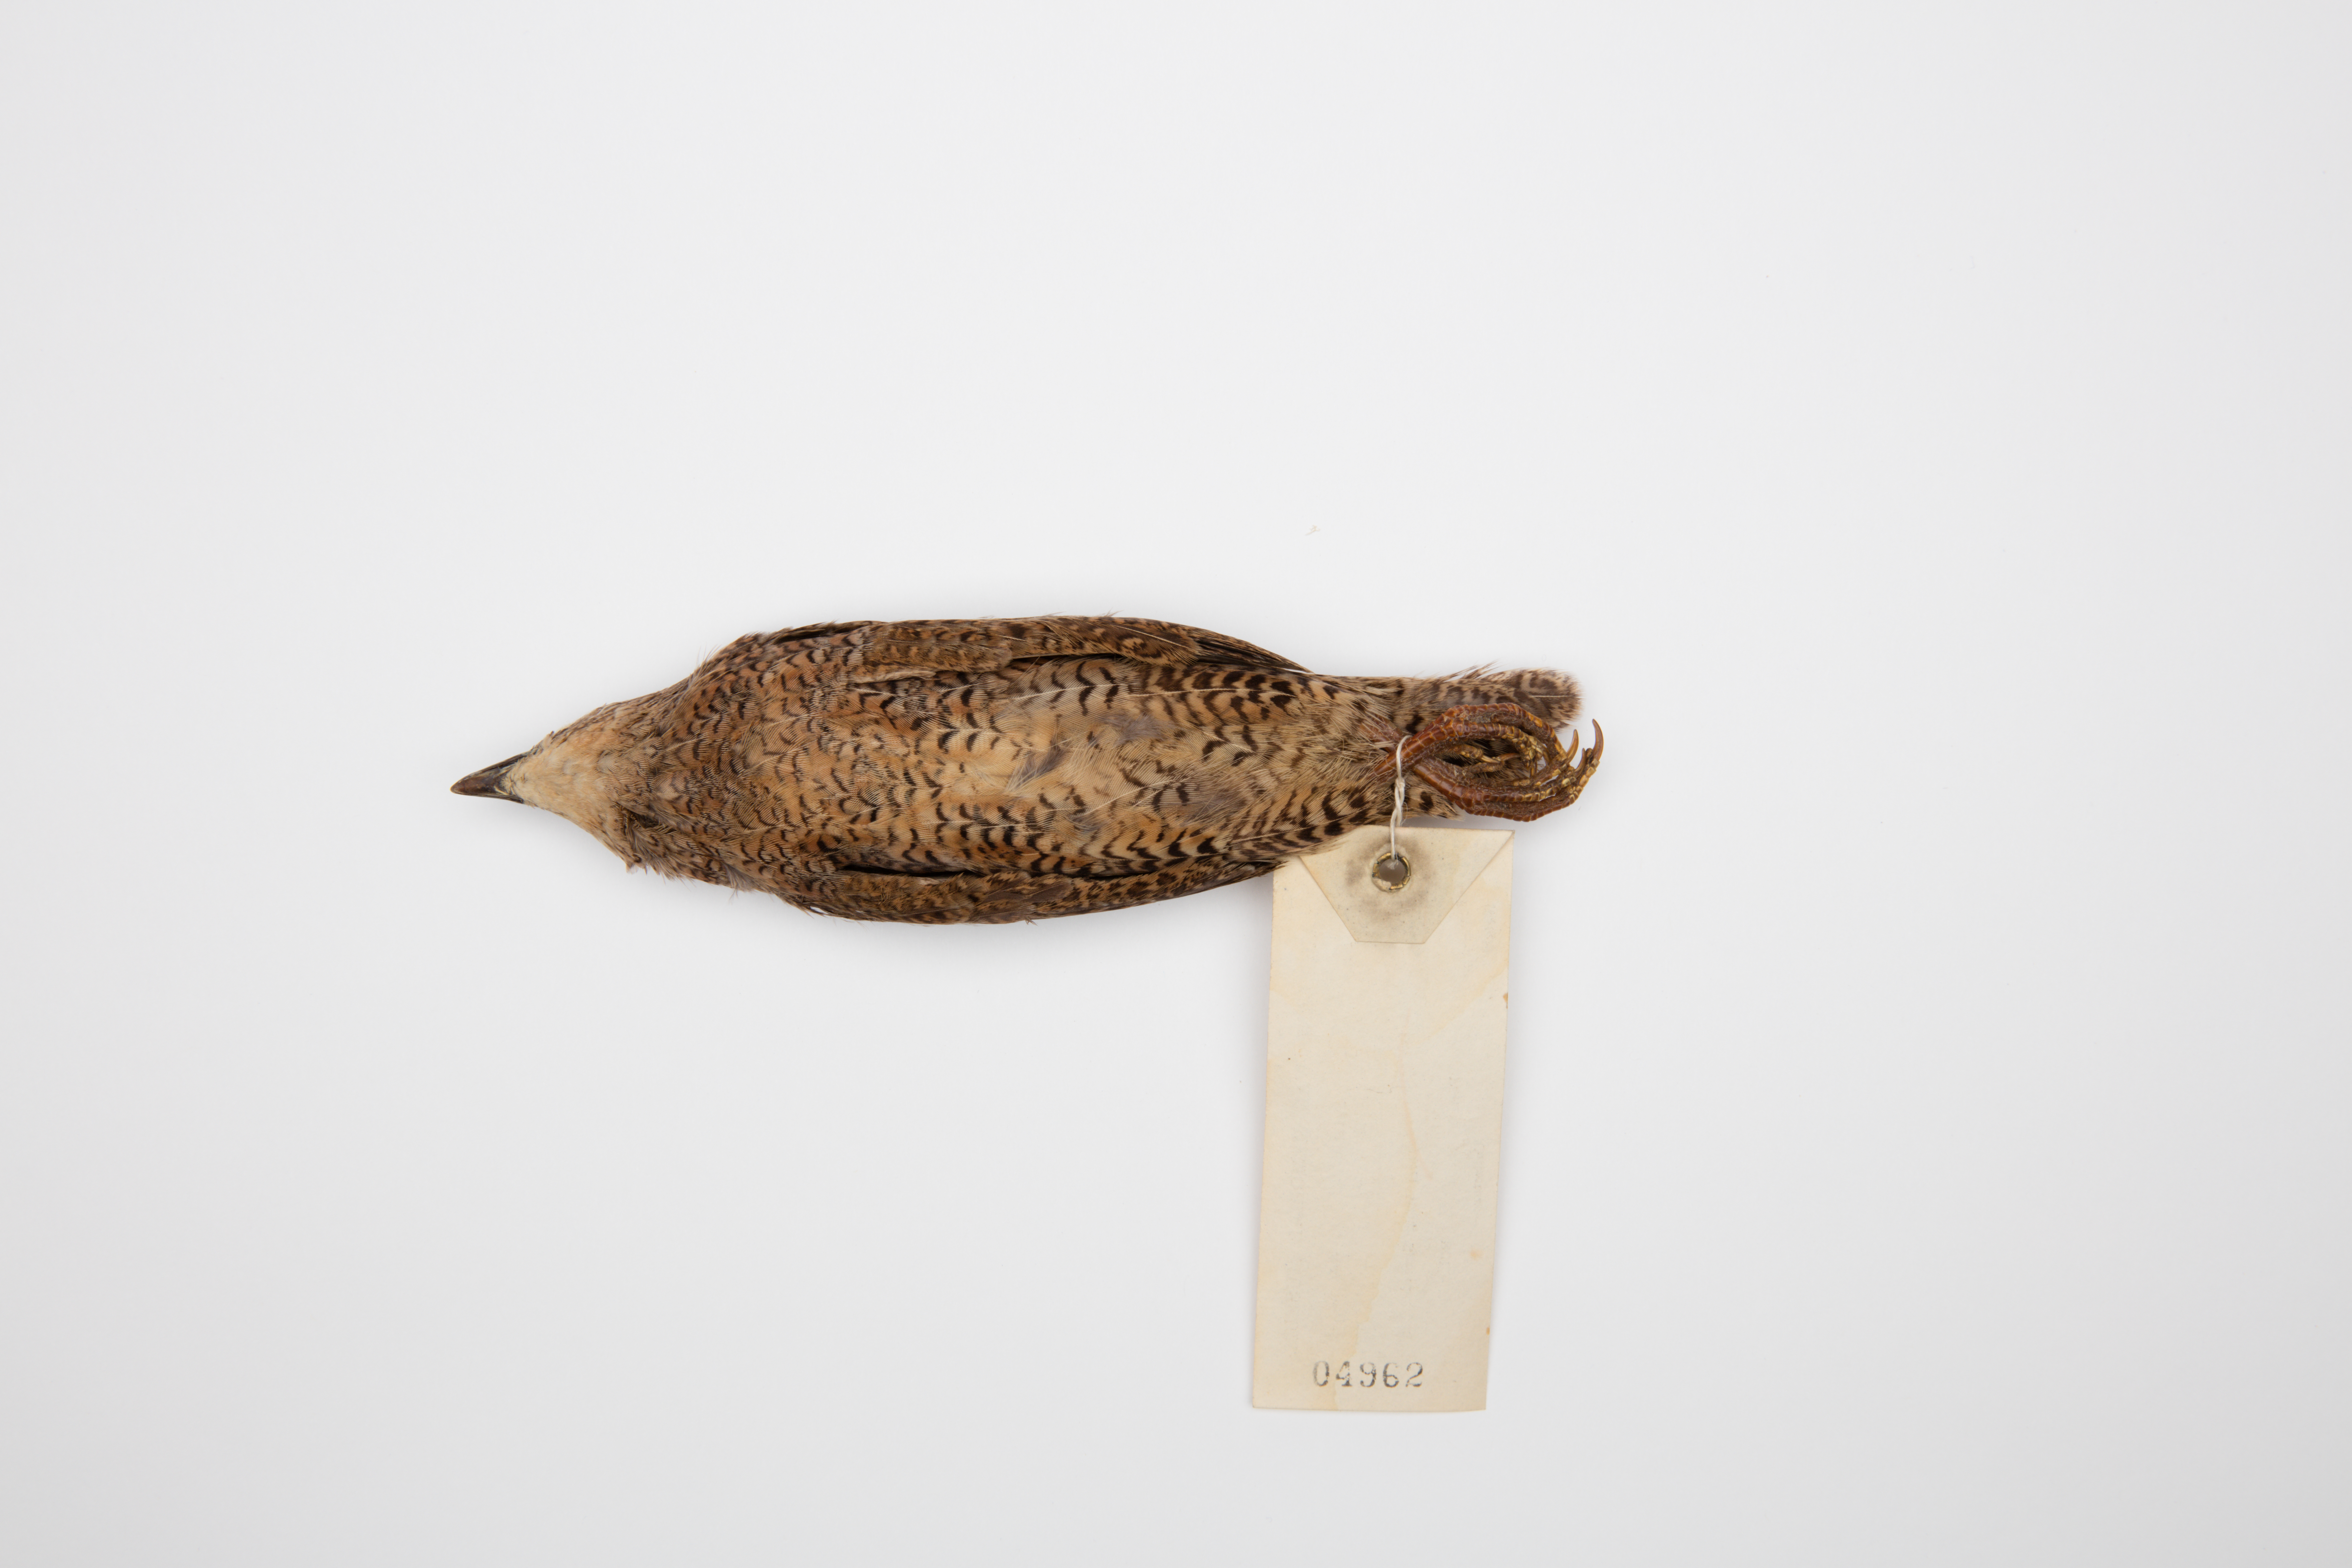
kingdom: Animalia
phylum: Chordata
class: Aves
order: Galliformes
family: Phasianidae
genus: Synoicus
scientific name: Synoicus ypsilophorus
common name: Brown quail
